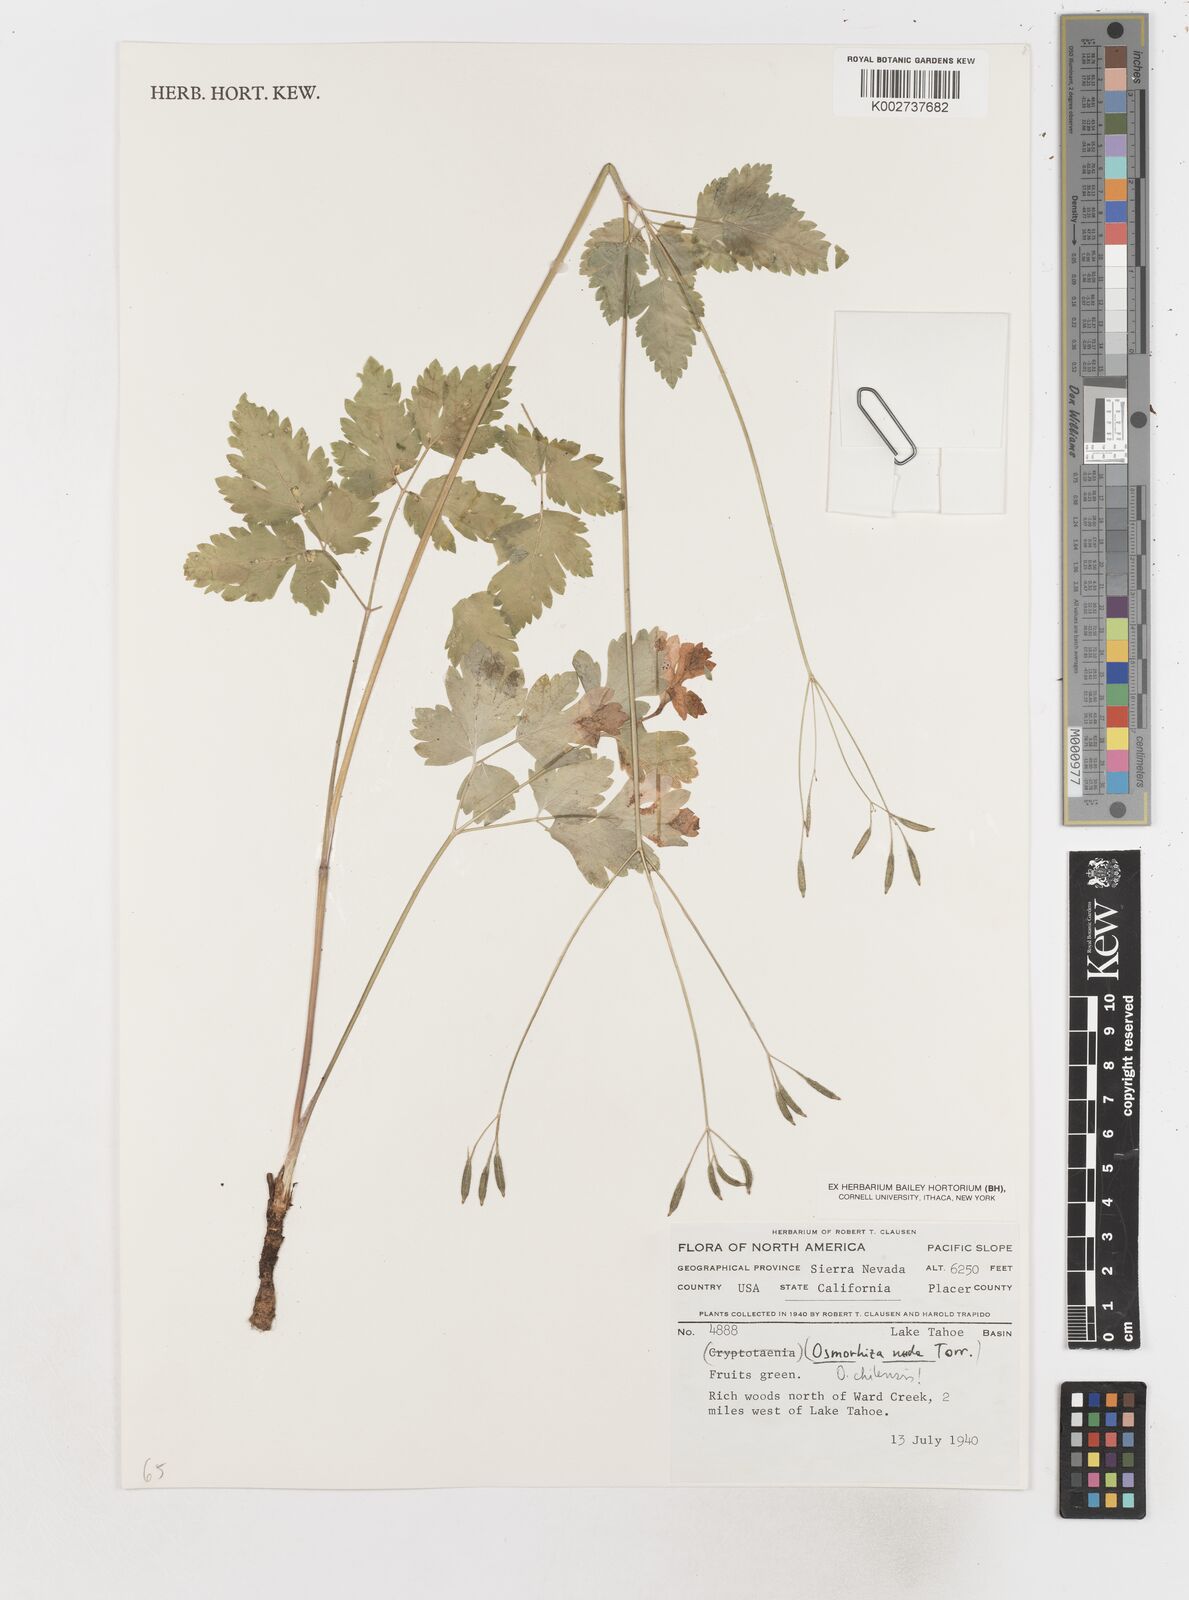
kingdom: Plantae
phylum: Tracheophyta
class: Magnoliopsida
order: Apiales
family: Apiaceae
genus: Osmorhiza
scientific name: Osmorhiza berteroi
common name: Mountain sweet cicely
